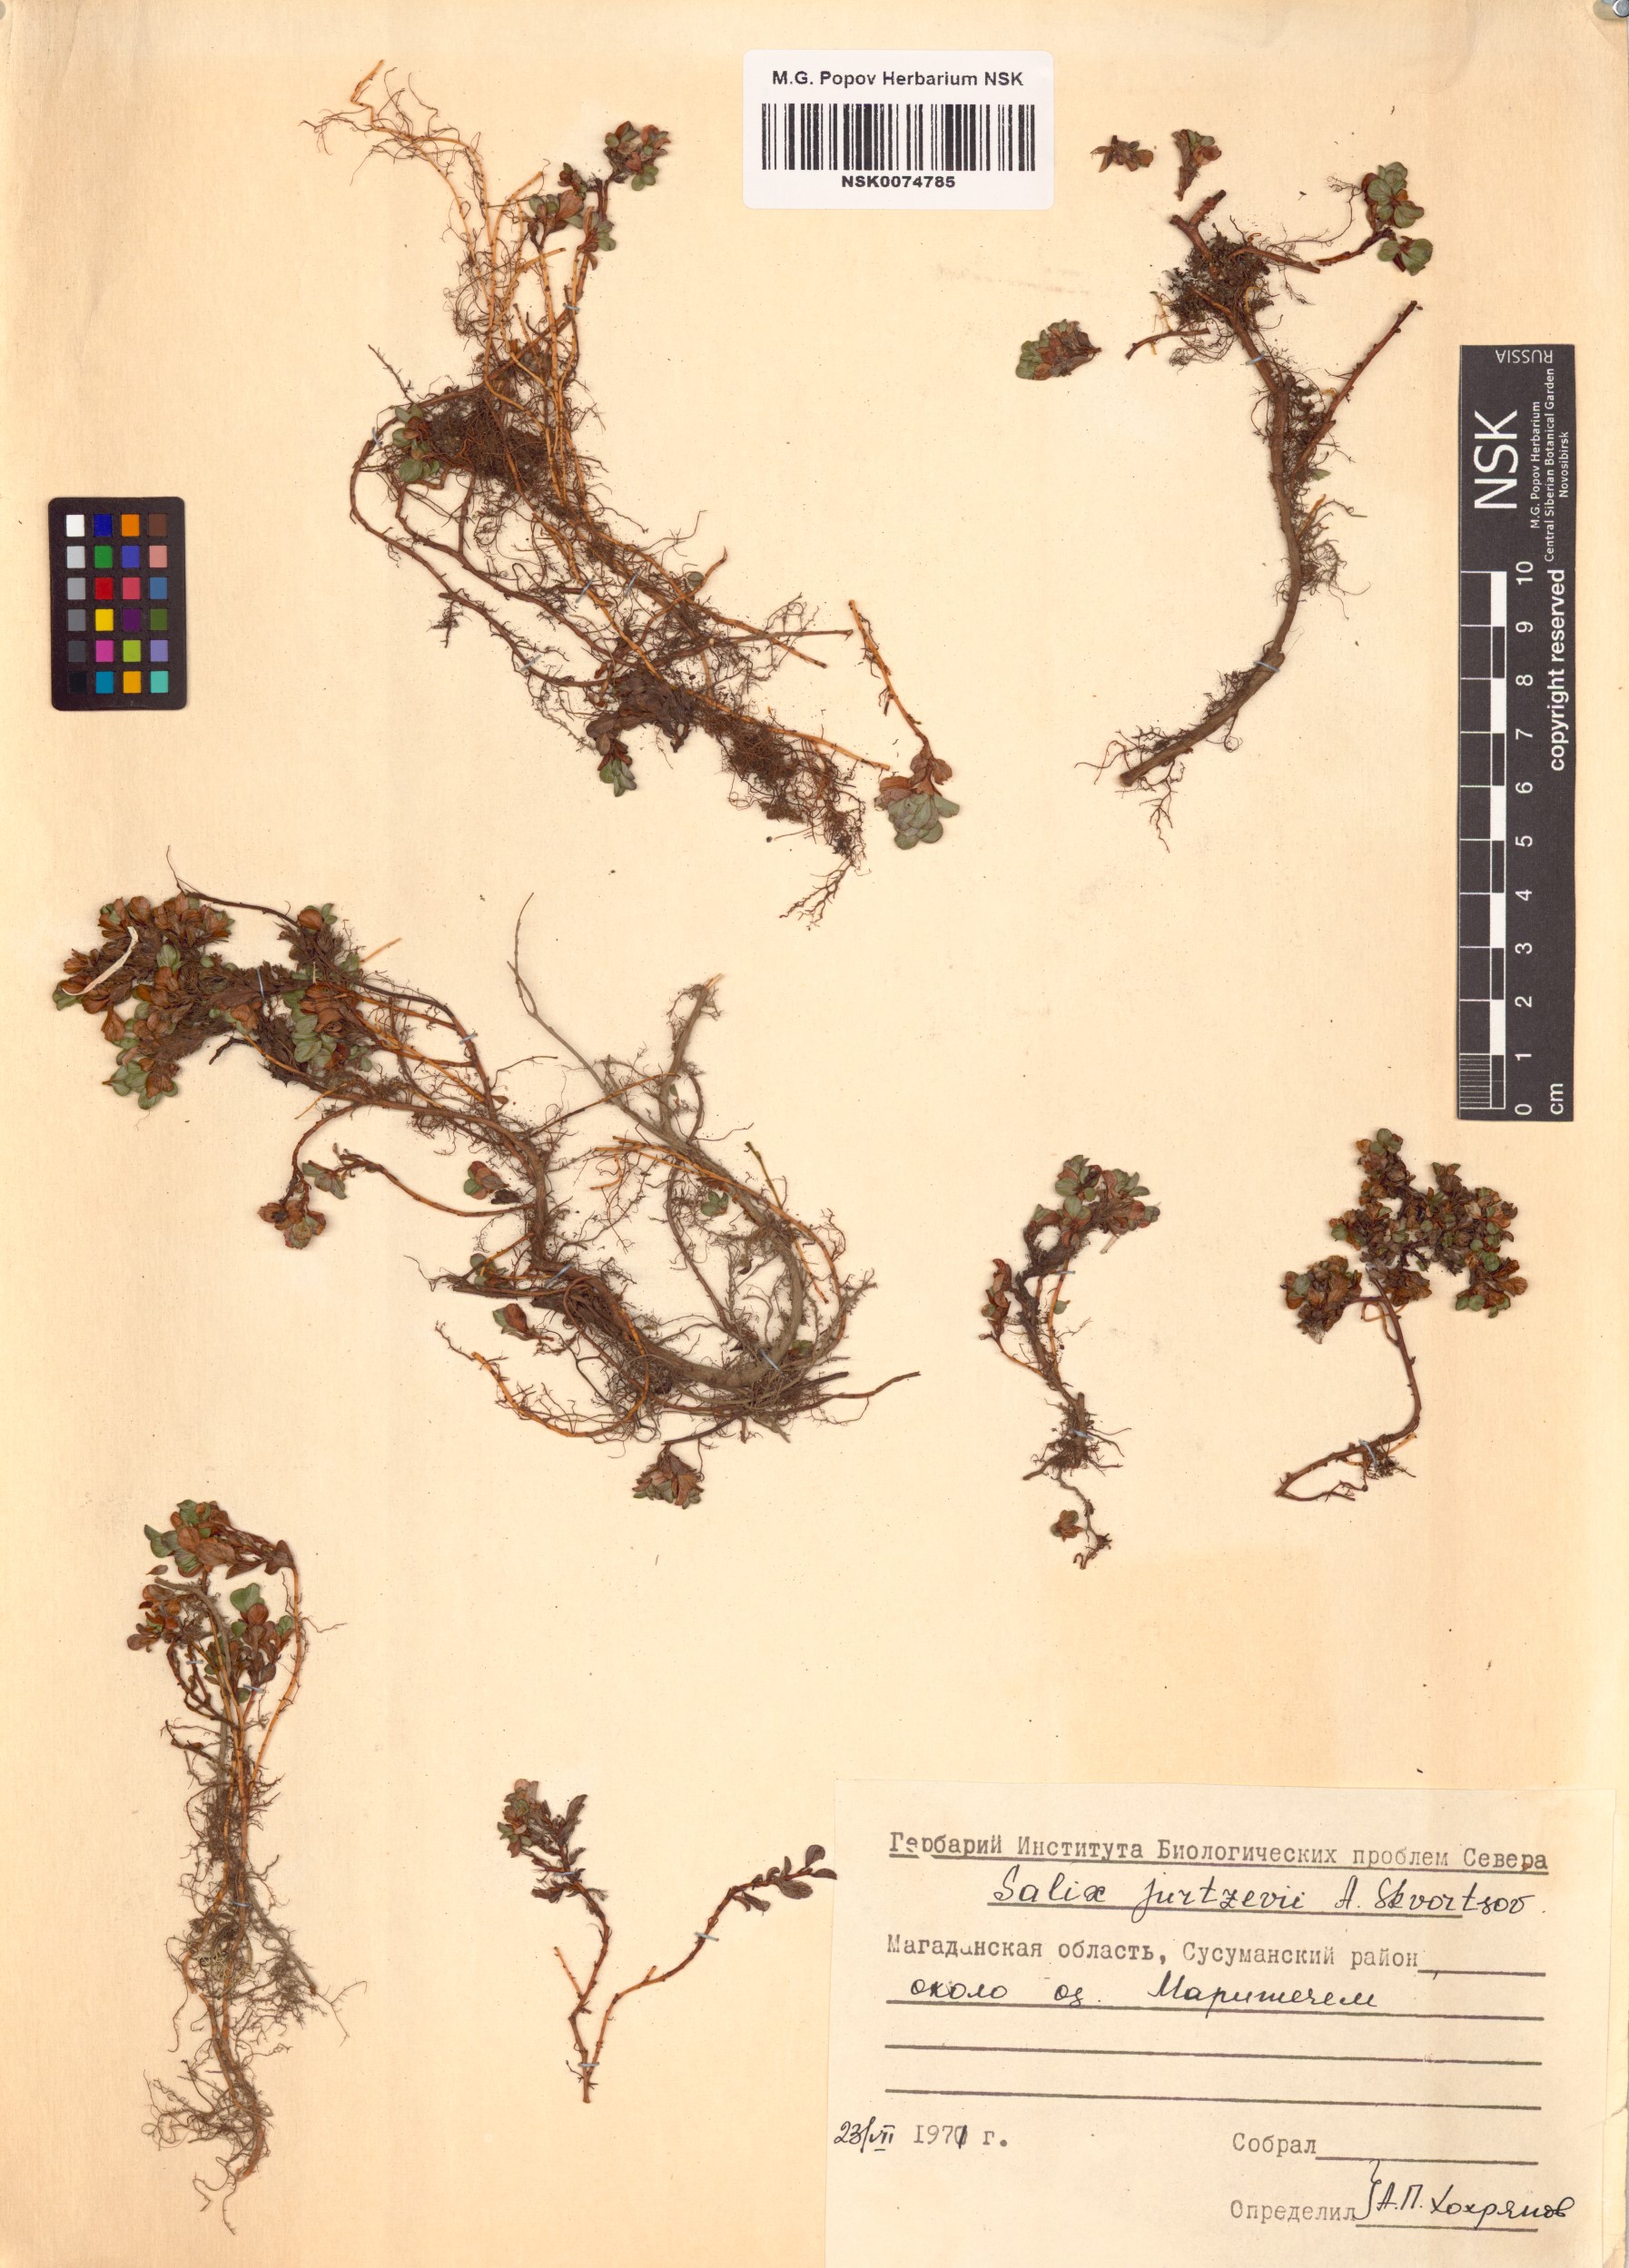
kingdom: Plantae
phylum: Tracheophyta
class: Magnoliopsida
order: Malpighiales
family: Salicaceae
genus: Salix
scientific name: Salix jurtzevii
